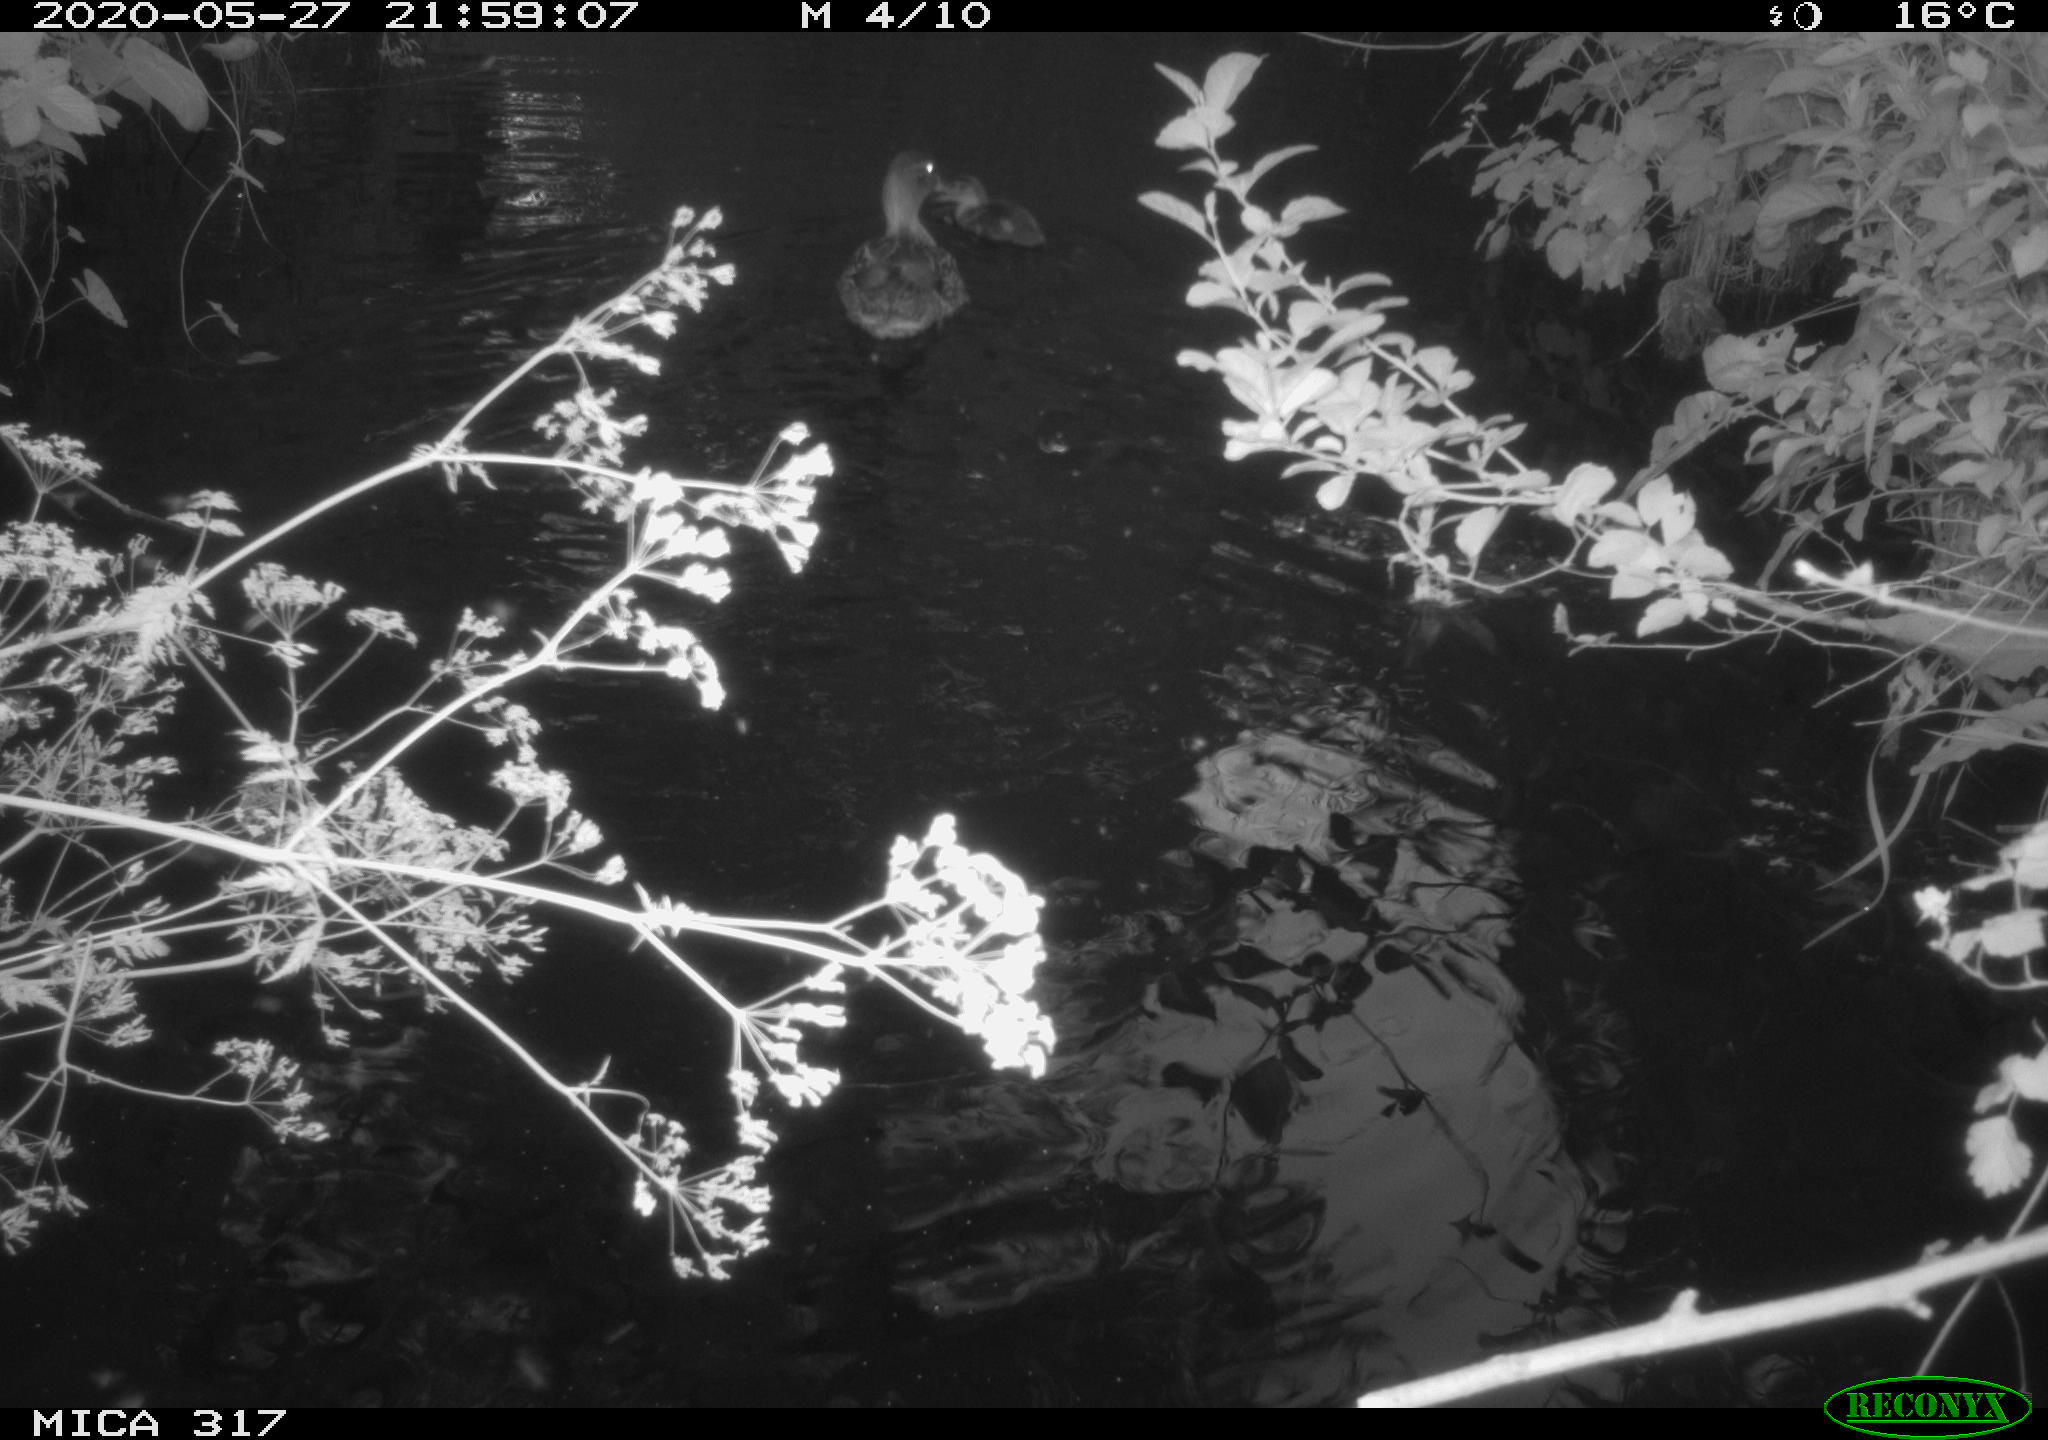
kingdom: Animalia
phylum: Chordata
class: Aves
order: Anseriformes
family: Anatidae
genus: Anas
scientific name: Anas platyrhynchos
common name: Mallard
